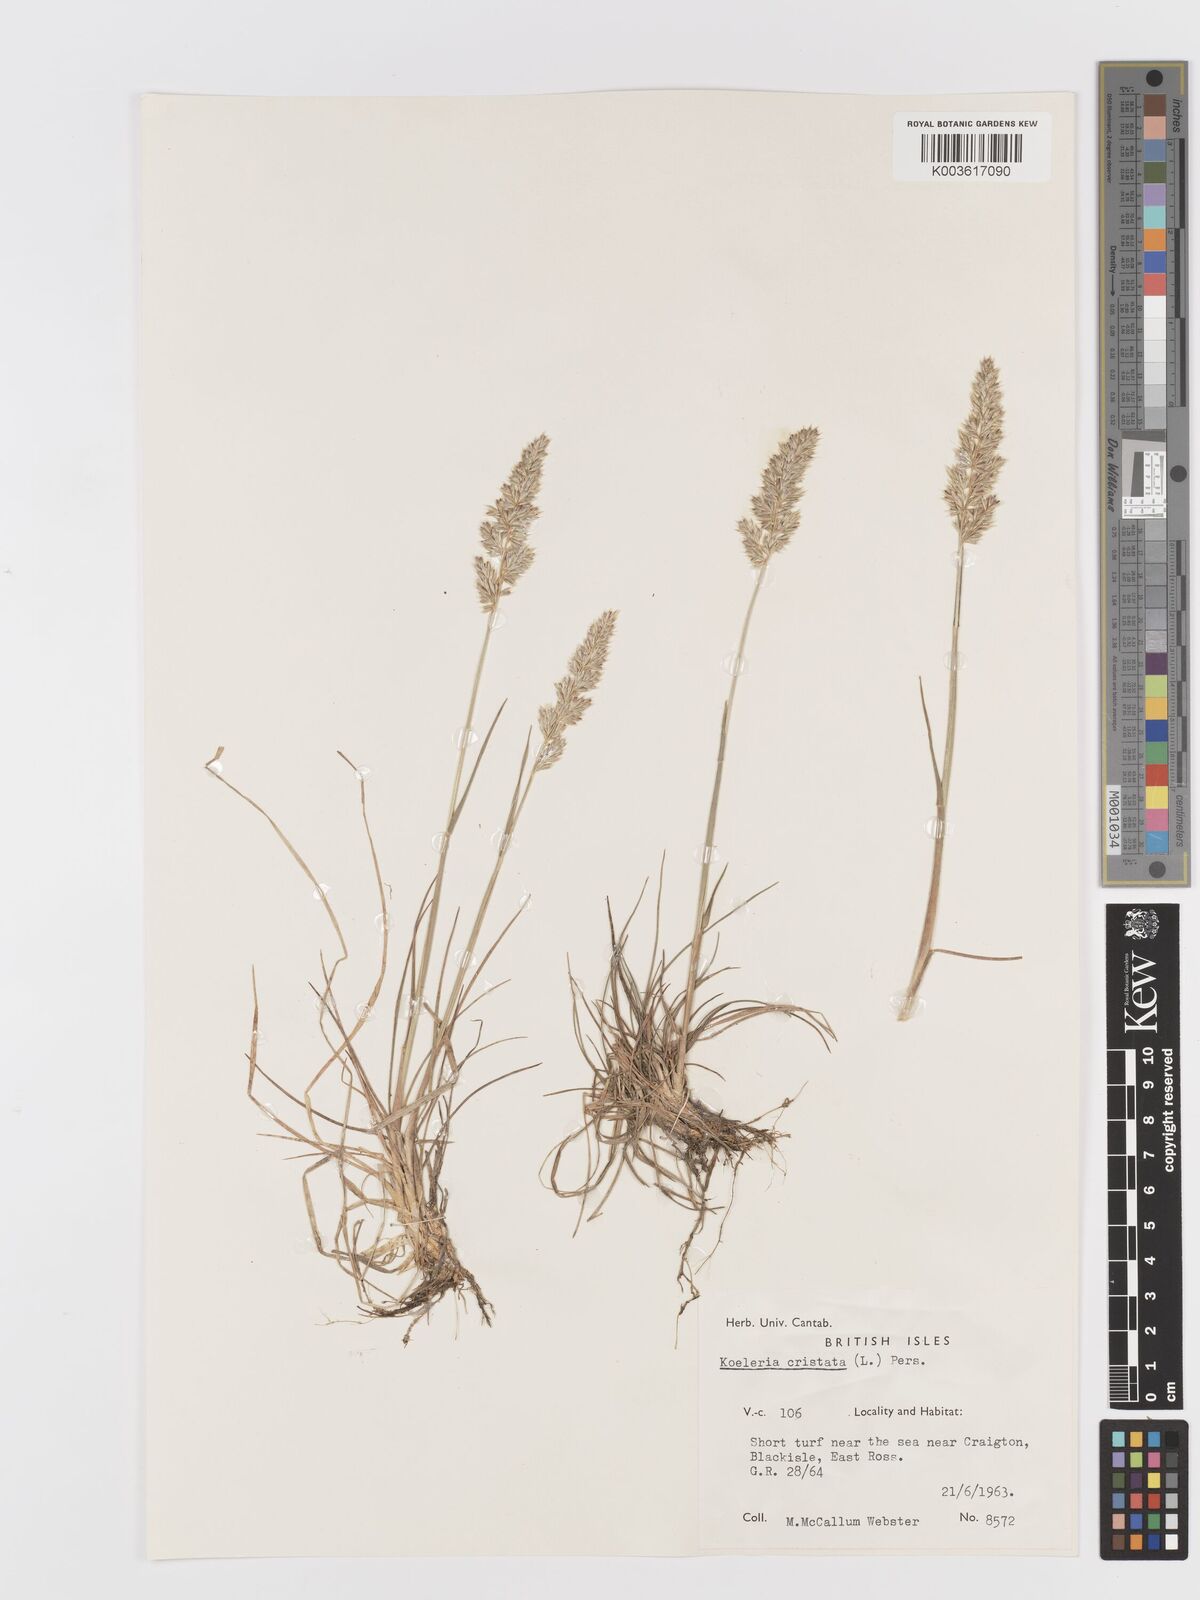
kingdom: Plantae
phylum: Tracheophyta
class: Liliopsida
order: Poales
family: Poaceae
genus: Koeleria
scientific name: Koeleria macrantha
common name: Crested hair-grass
